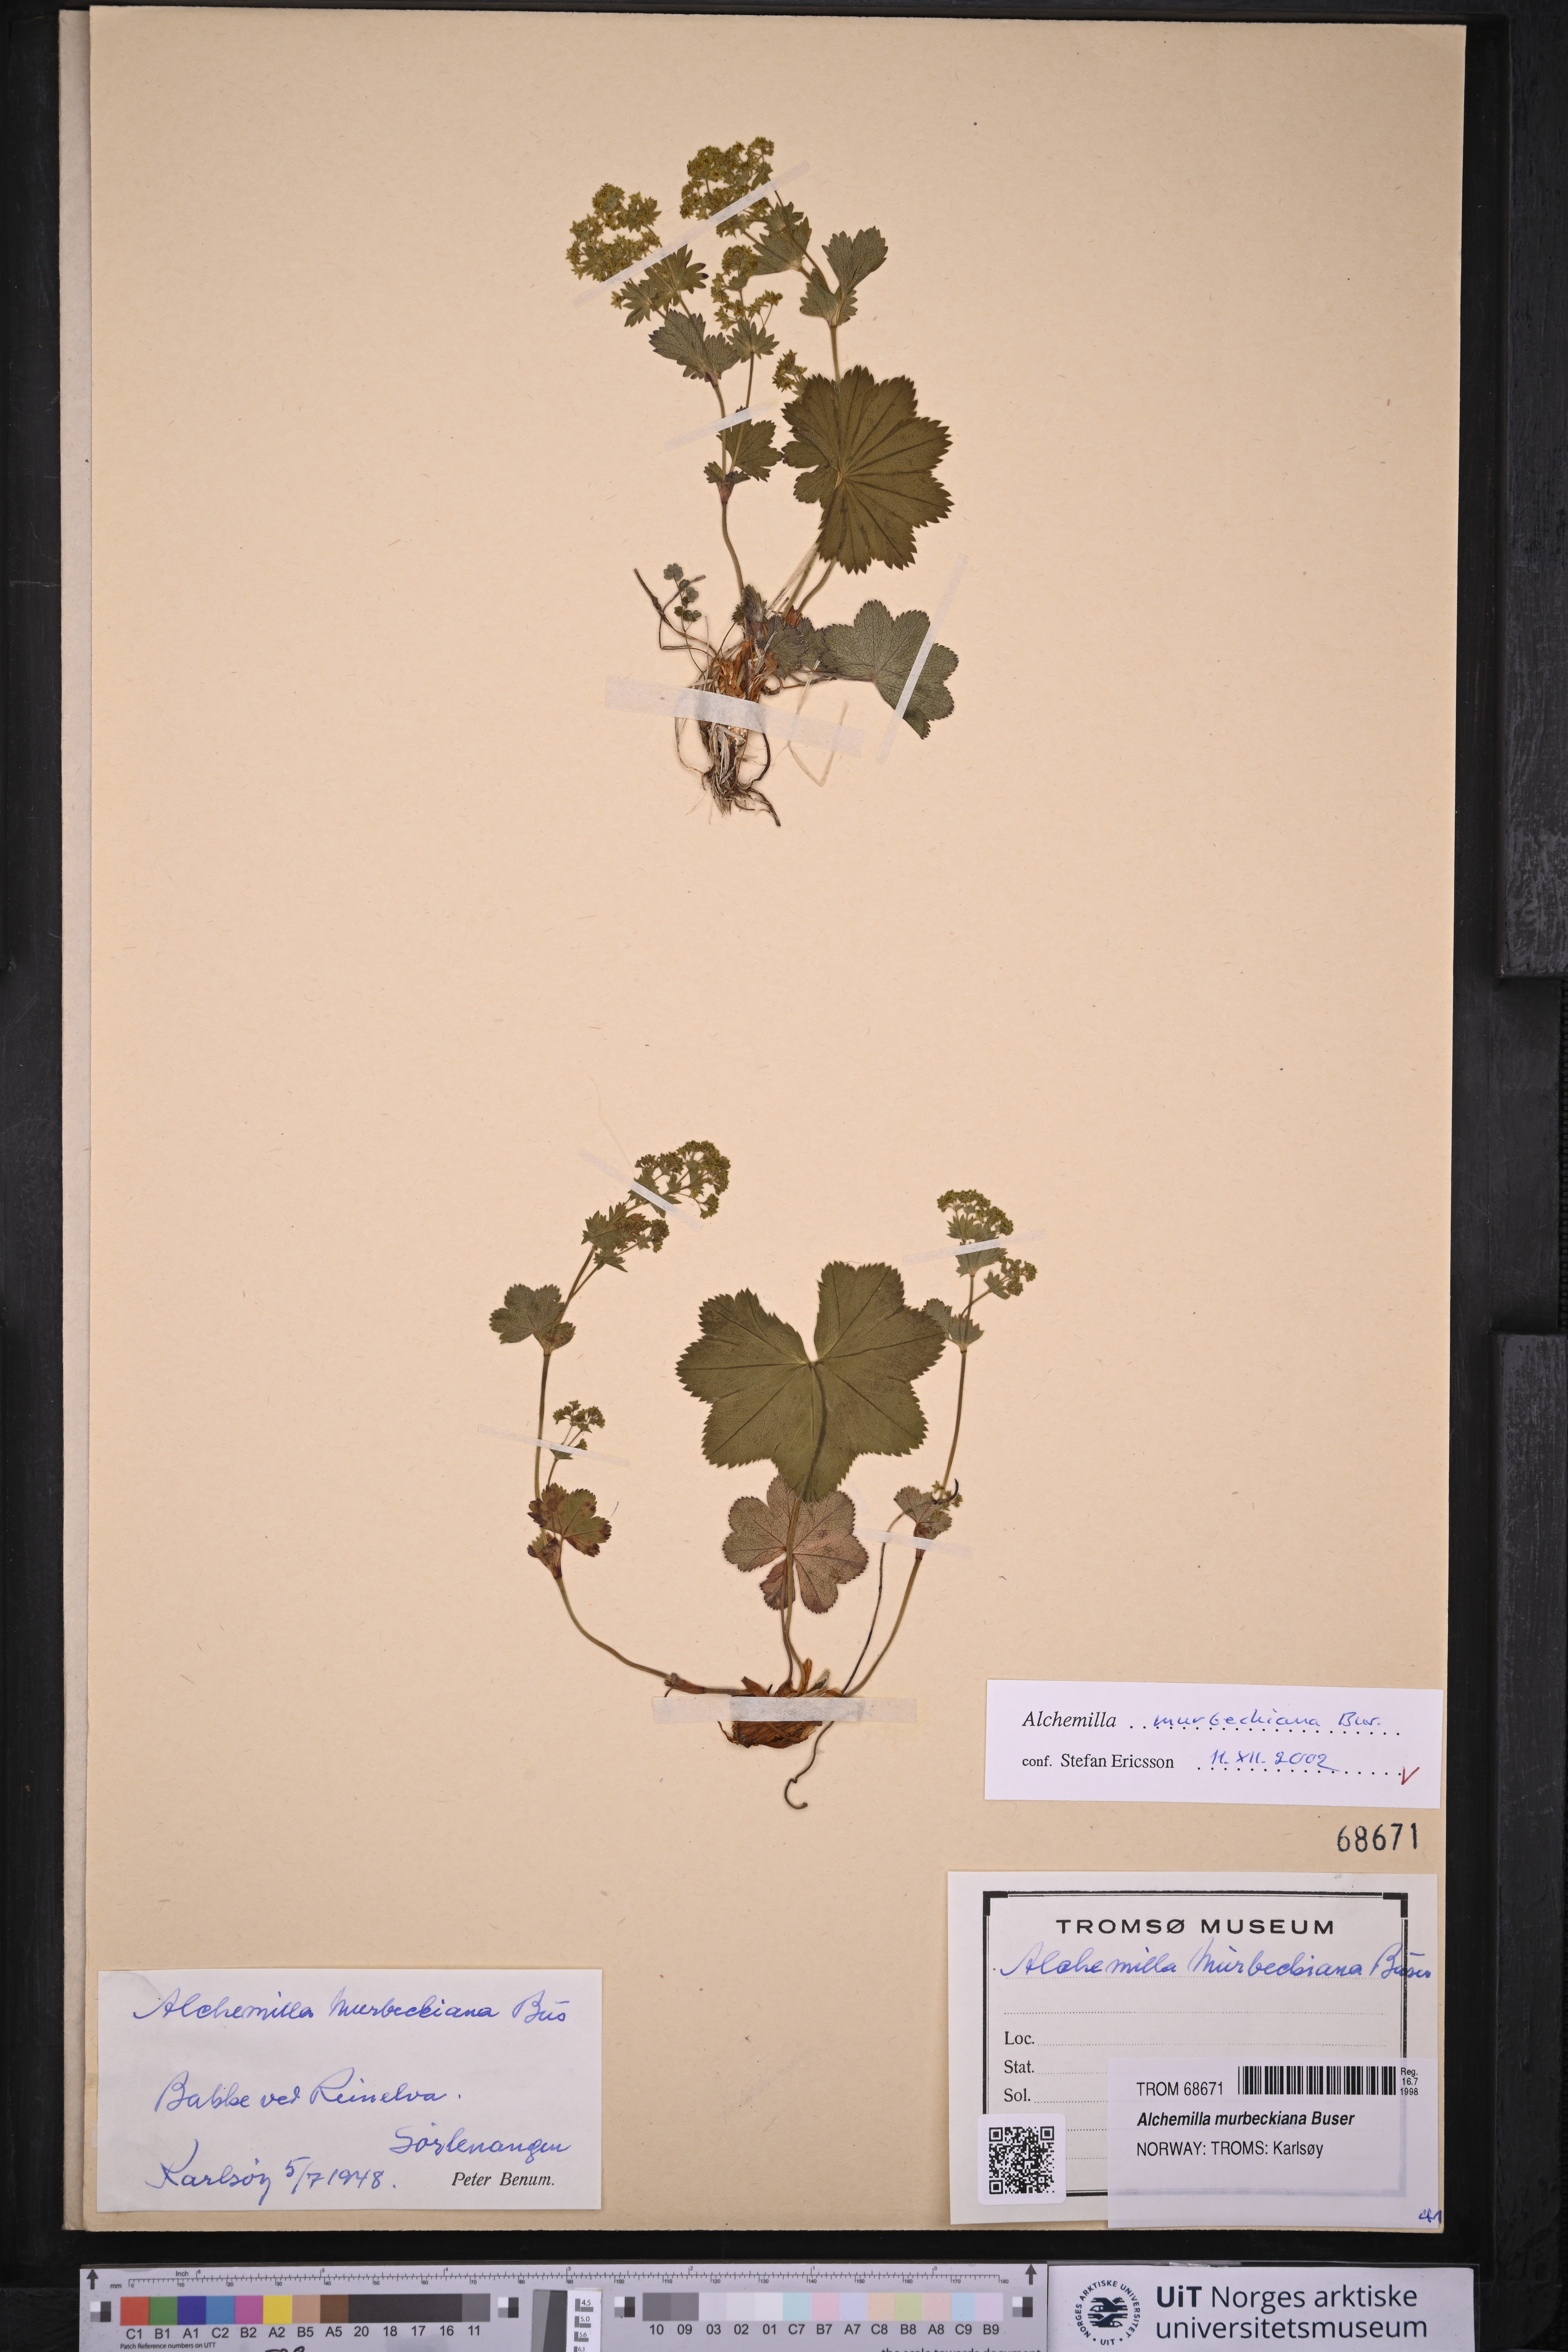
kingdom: Plantae
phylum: Tracheophyta
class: Magnoliopsida
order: Rosales
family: Rosaceae
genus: Alchemilla
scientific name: Alchemilla murbeckiana
